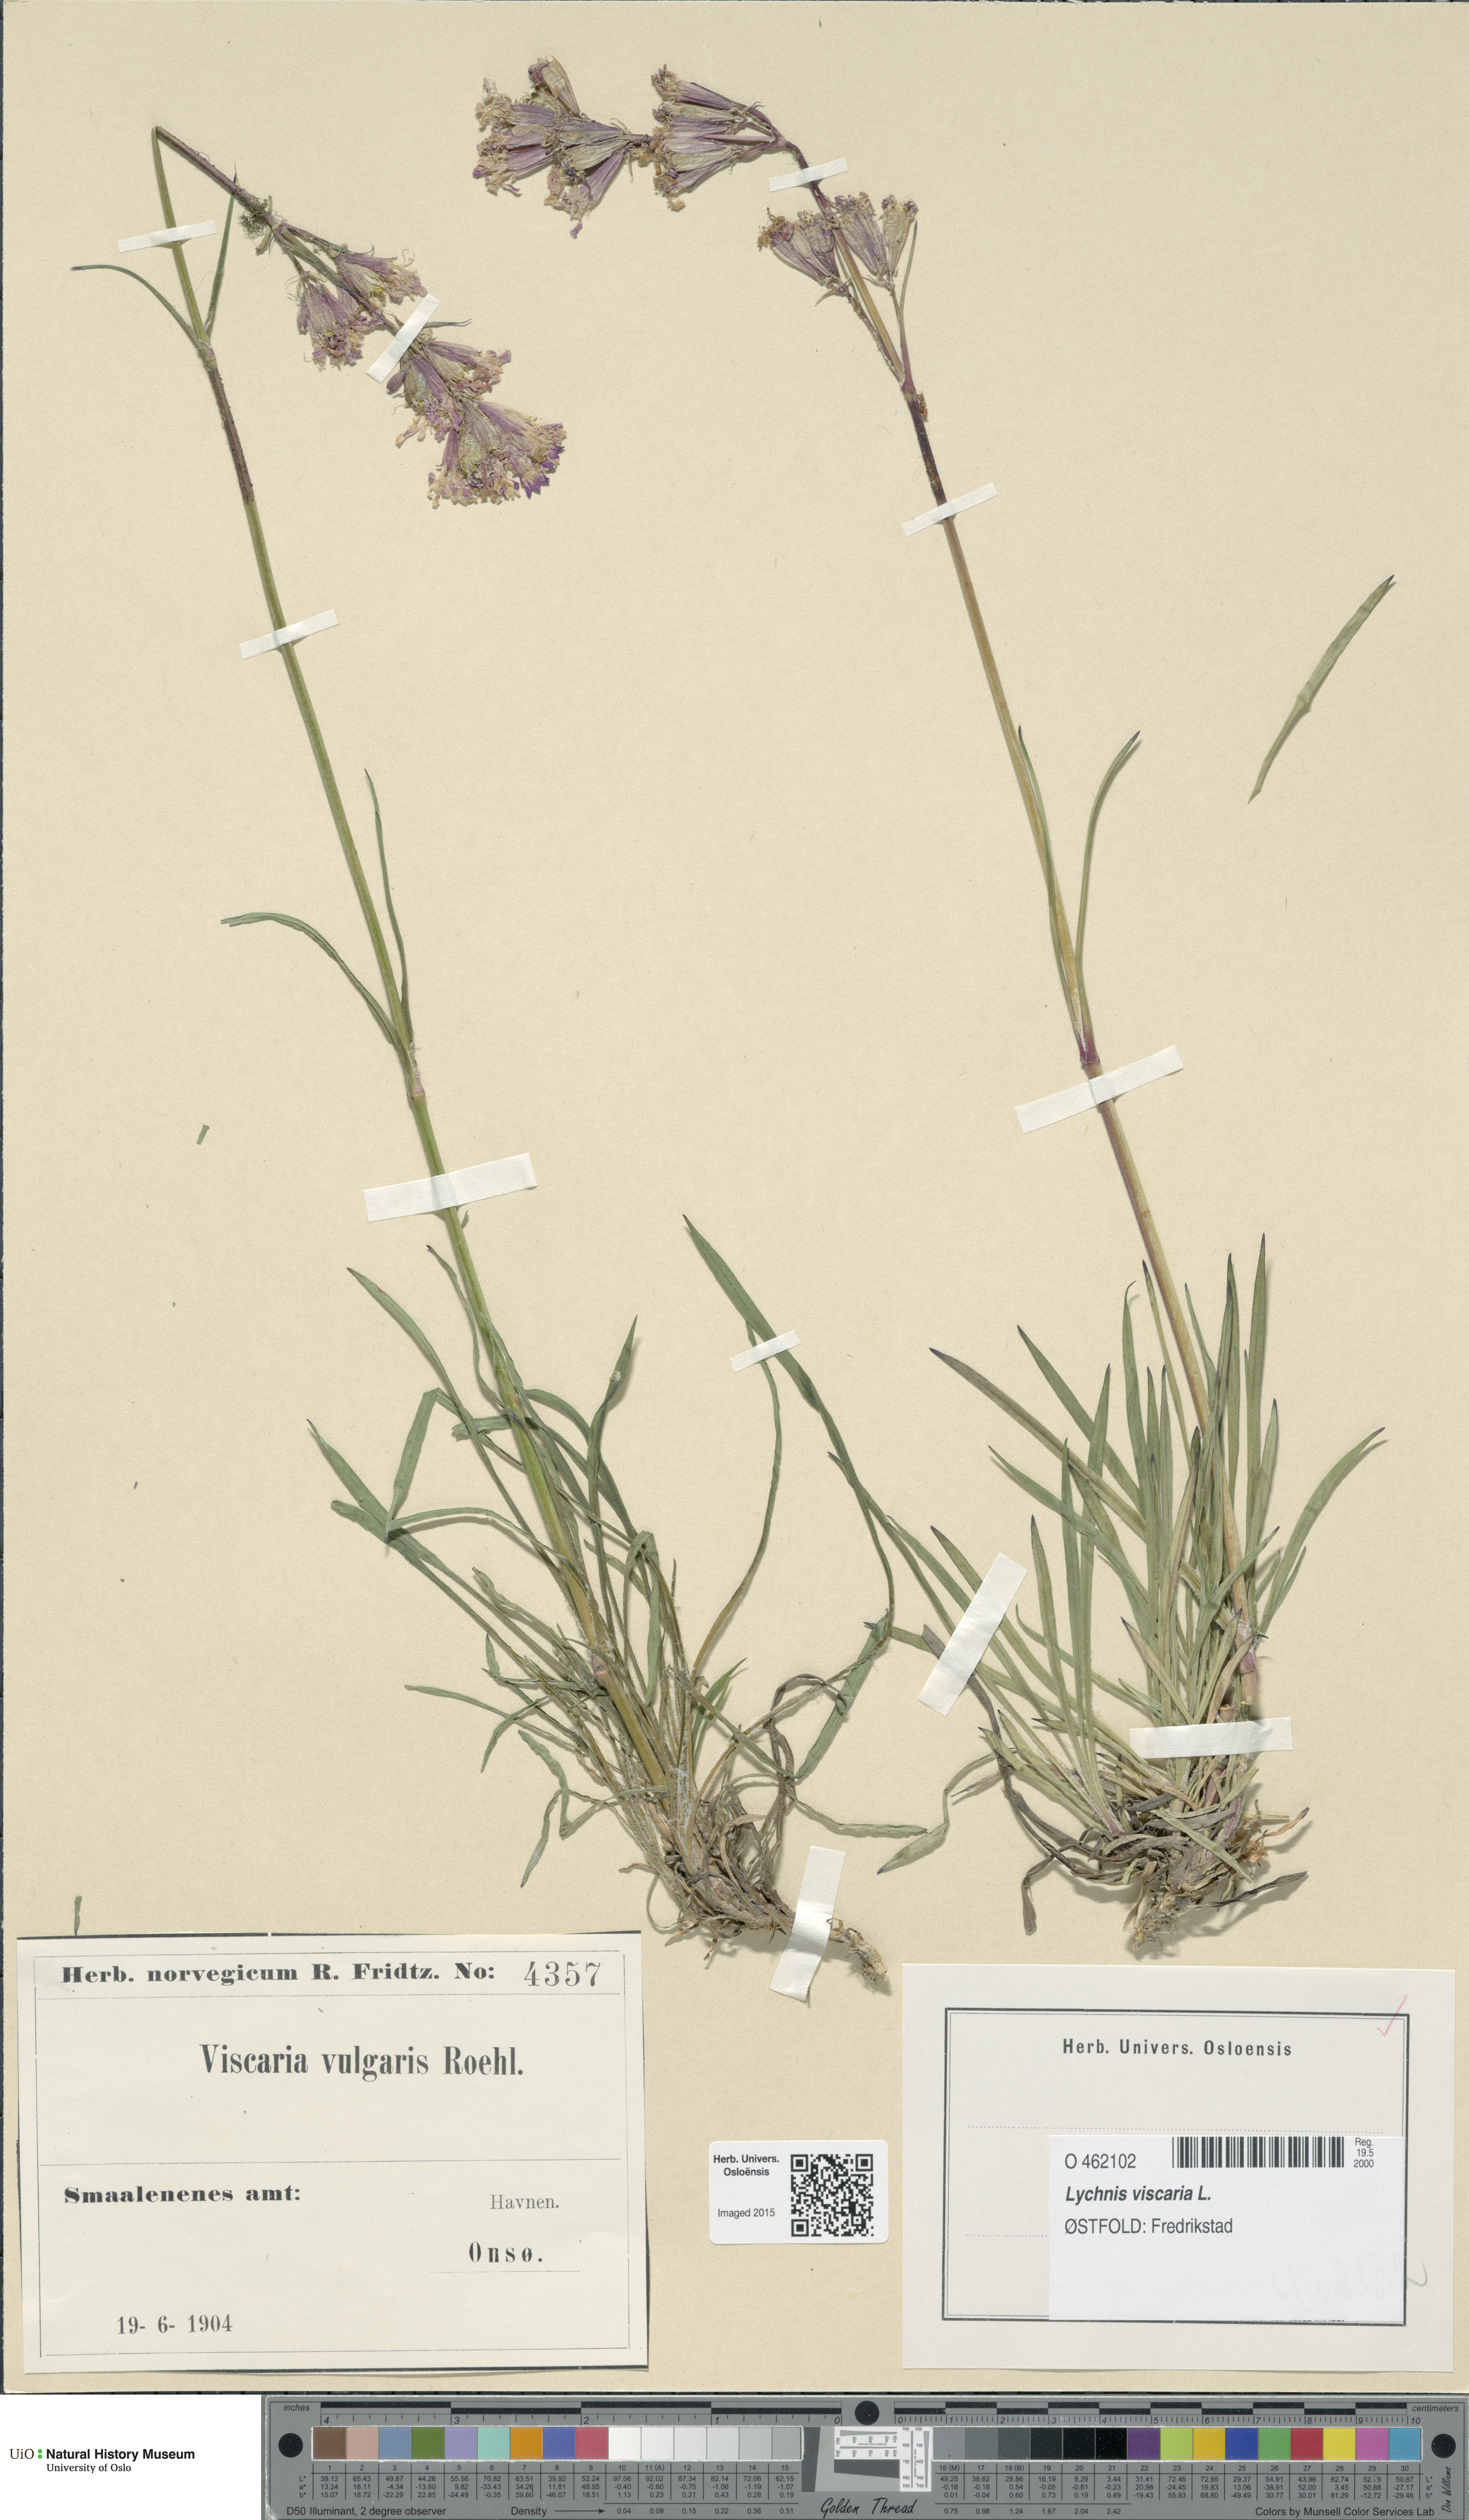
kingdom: Plantae
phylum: Tracheophyta
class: Magnoliopsida
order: Caryophyllales
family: Caryophyllaceae
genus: Viscaria
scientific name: Viscaria vulgaris
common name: Clammy campion
